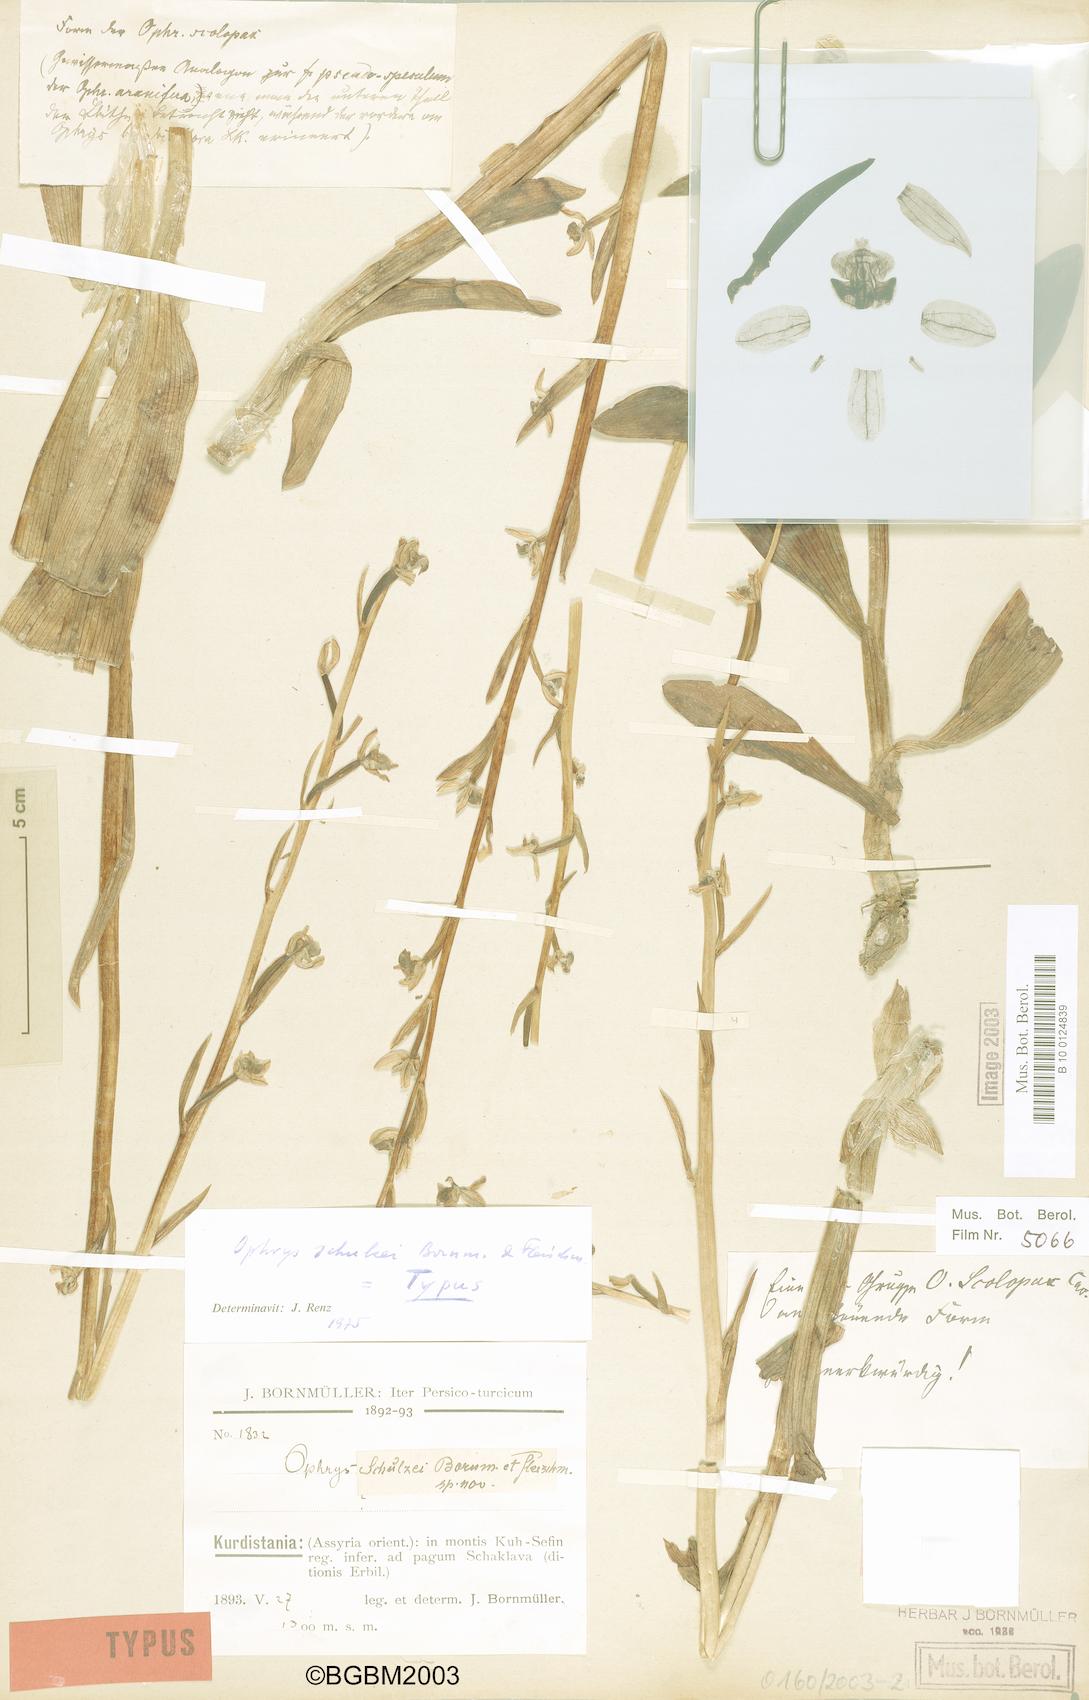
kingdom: Plantae
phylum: Tracheophyta
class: Liliopsida
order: Asparagales
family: Orchidaceae
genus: Ophrys
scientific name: Ophrys schulzei
